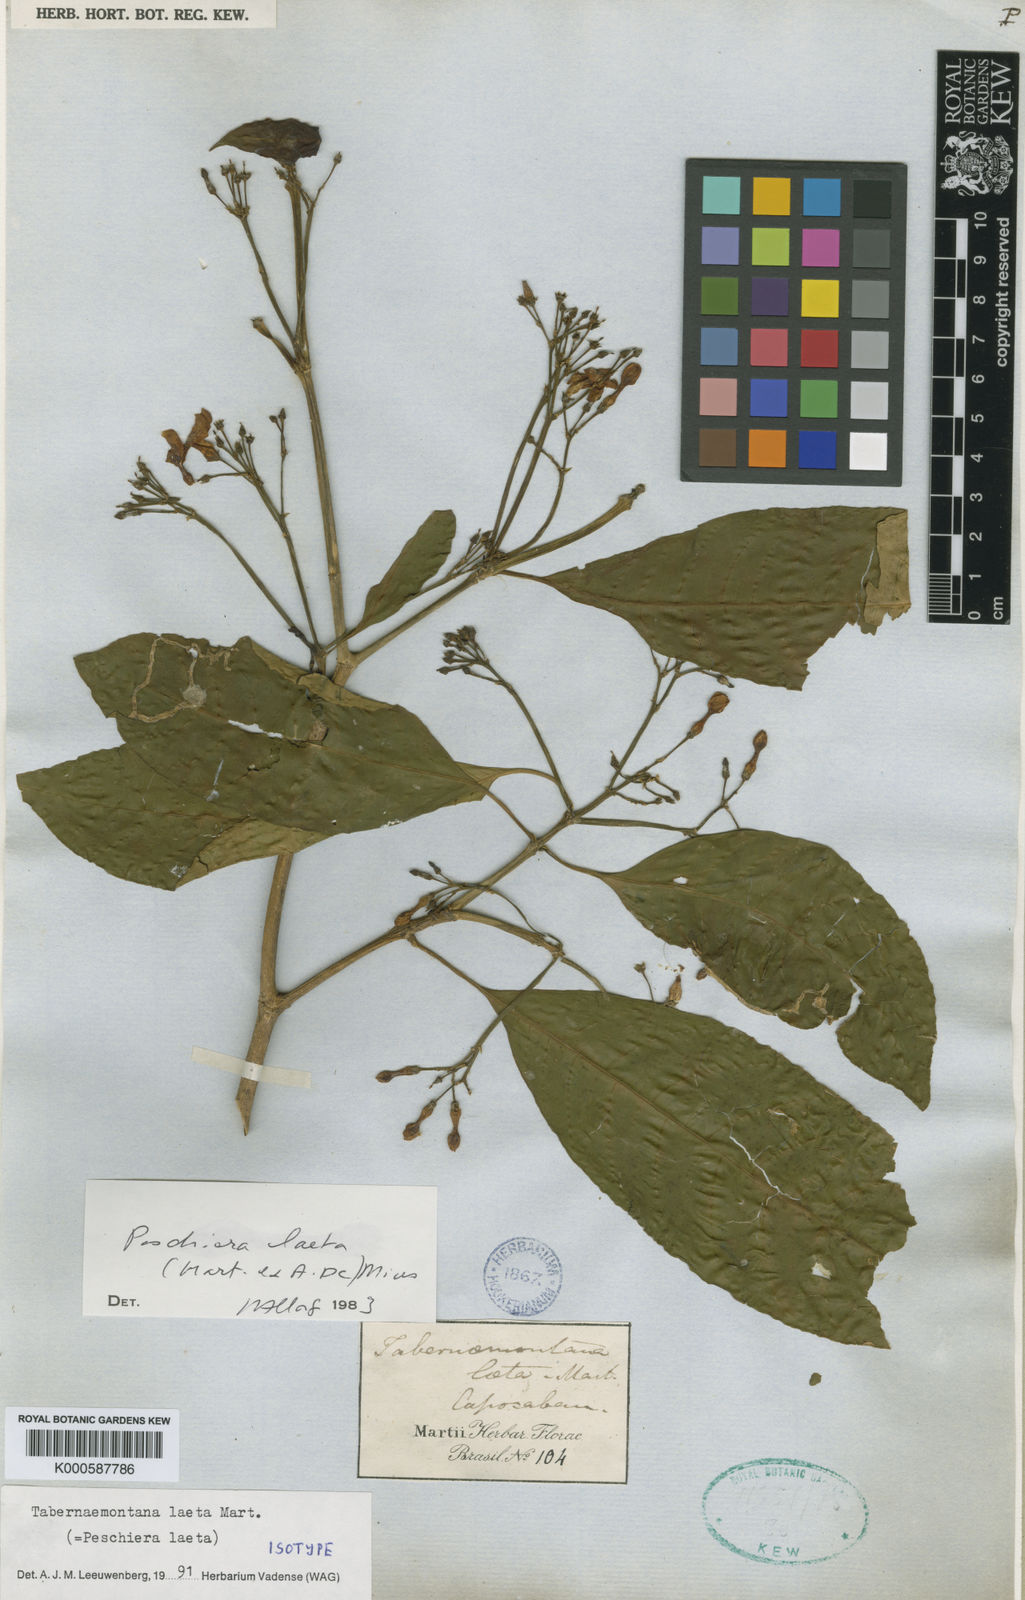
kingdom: Plantae
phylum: Tracheophyta
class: Magnoliopsida
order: Gentianales
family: Apocynaceae
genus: Tabernaemontana
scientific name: Tabernaemontana laeta
